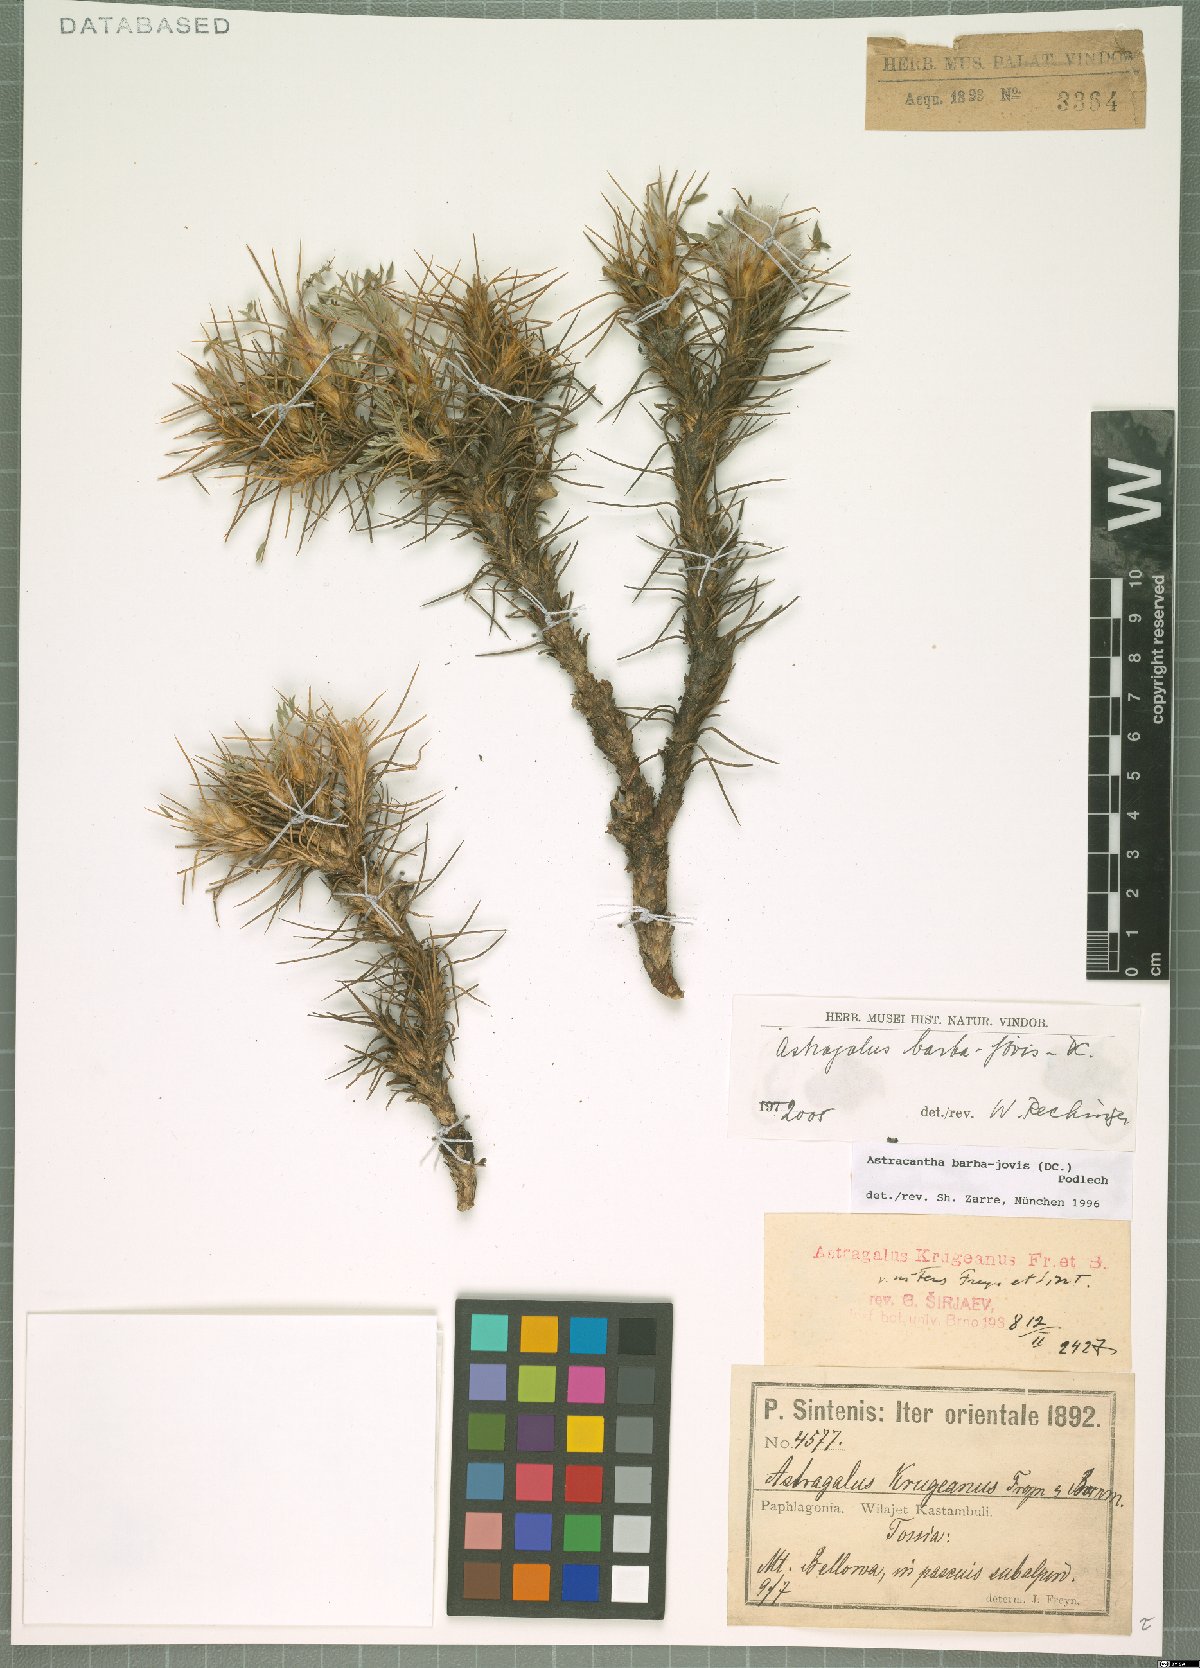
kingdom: Plantae
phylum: Tracheophyta
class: Magnoliopsida
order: Fabales
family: Fabaceae
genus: Astragalus
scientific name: Astragalus barba-jovis
